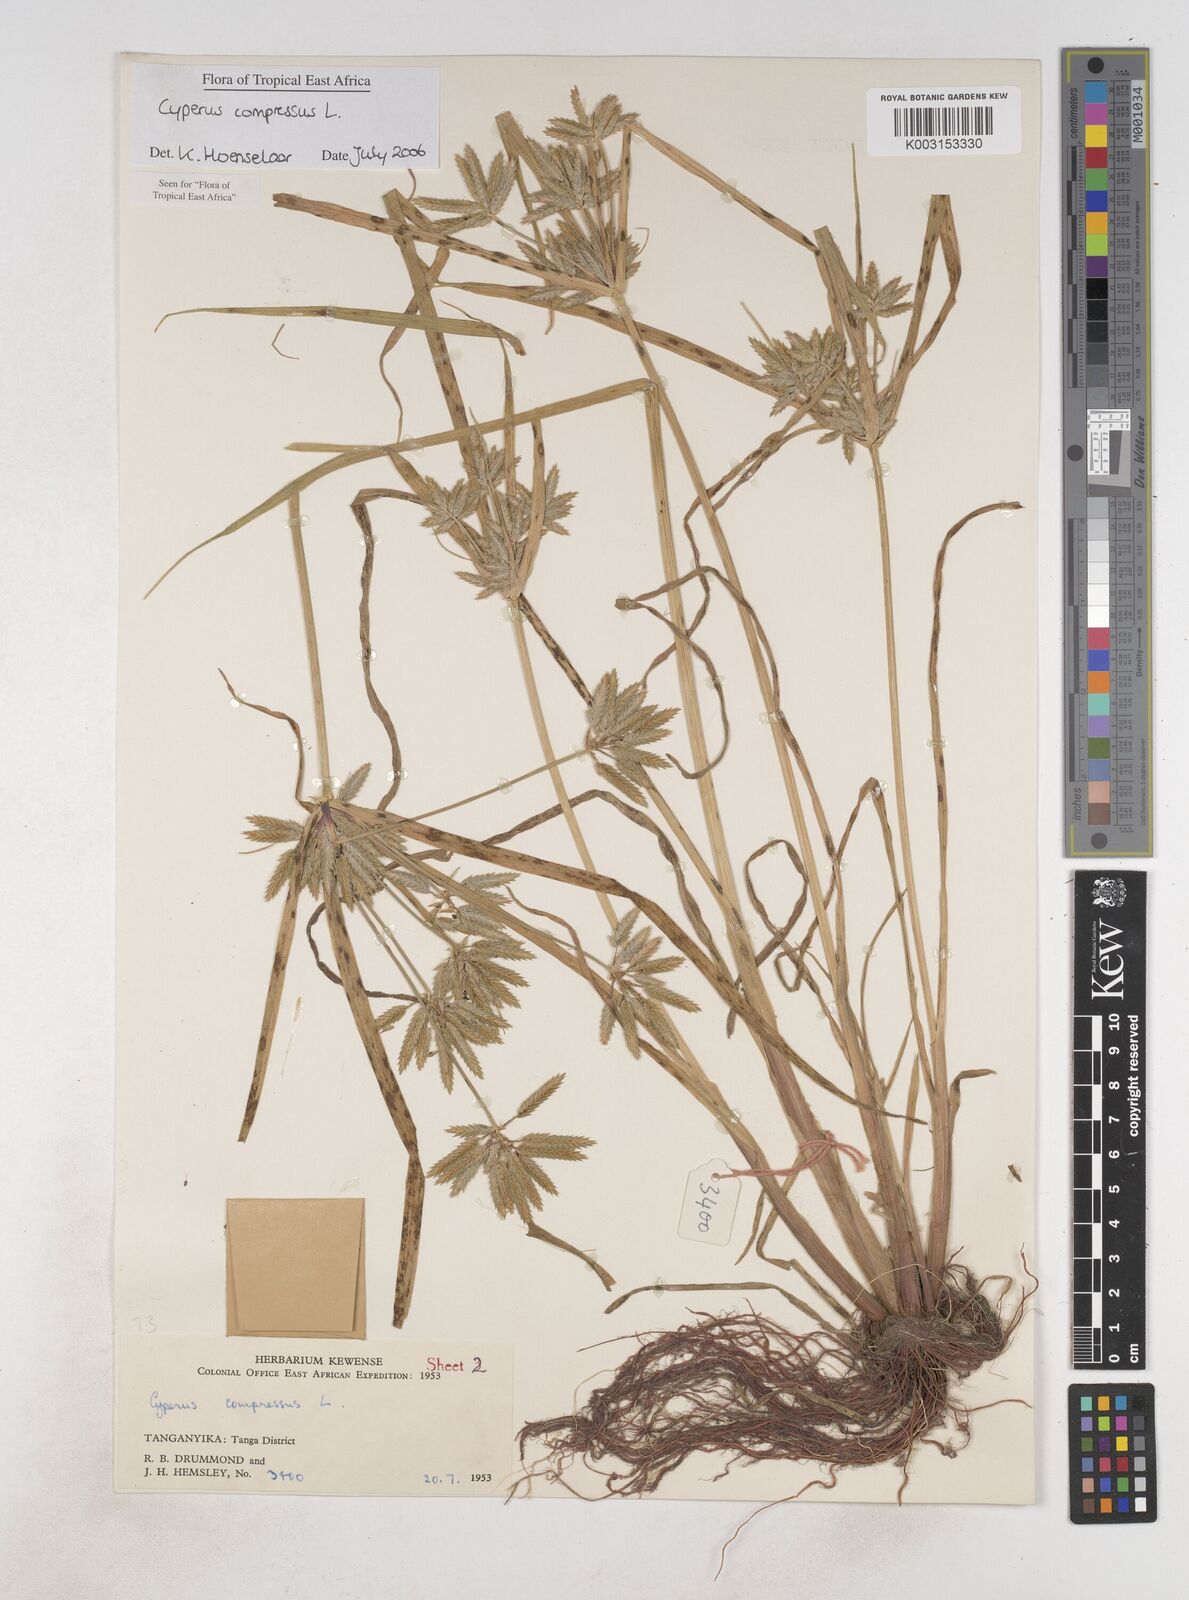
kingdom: Plantae
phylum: Tracheophyta
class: Liliopsida
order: Poales
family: Cyperaceae
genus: Cyperus
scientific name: Cyperus compressus
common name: Poorland flatsedge
